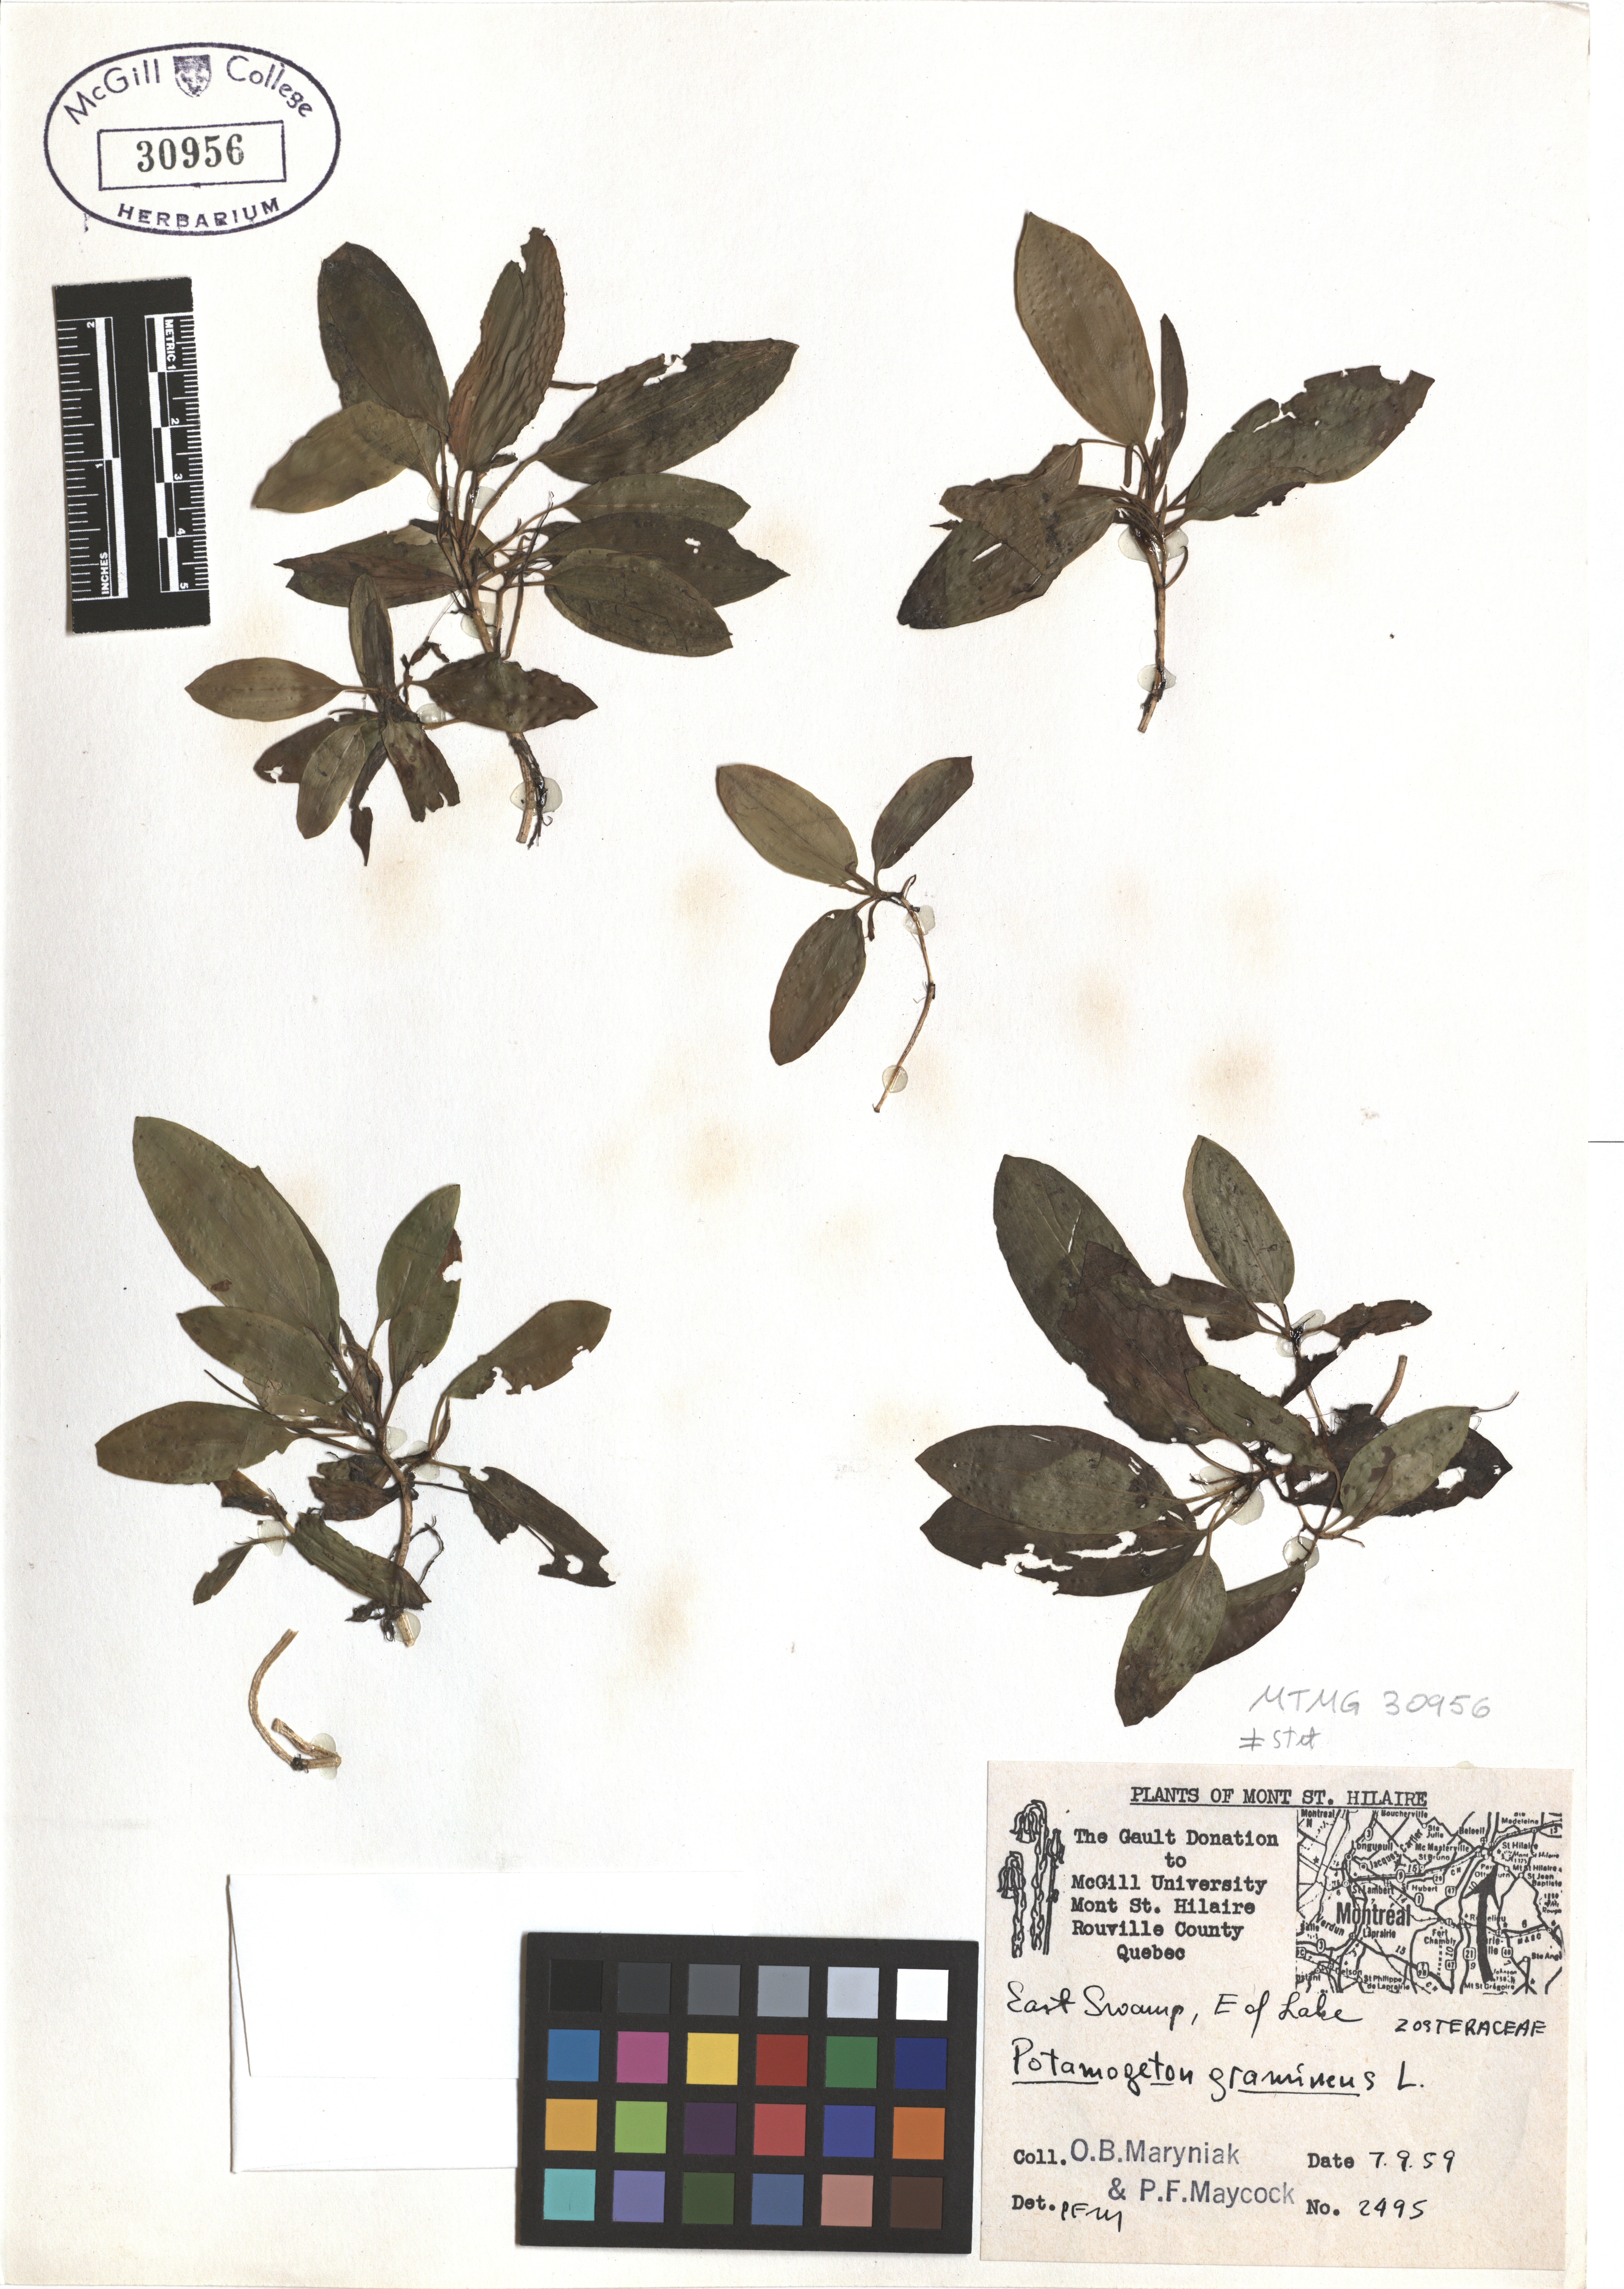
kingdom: Plantae
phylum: Tracheophyta
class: Liliopsida
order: Alismatales
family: Potamogetonaceae
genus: Potamogeton
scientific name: Potamogeton gramineus
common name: Various-leaved pondweed
